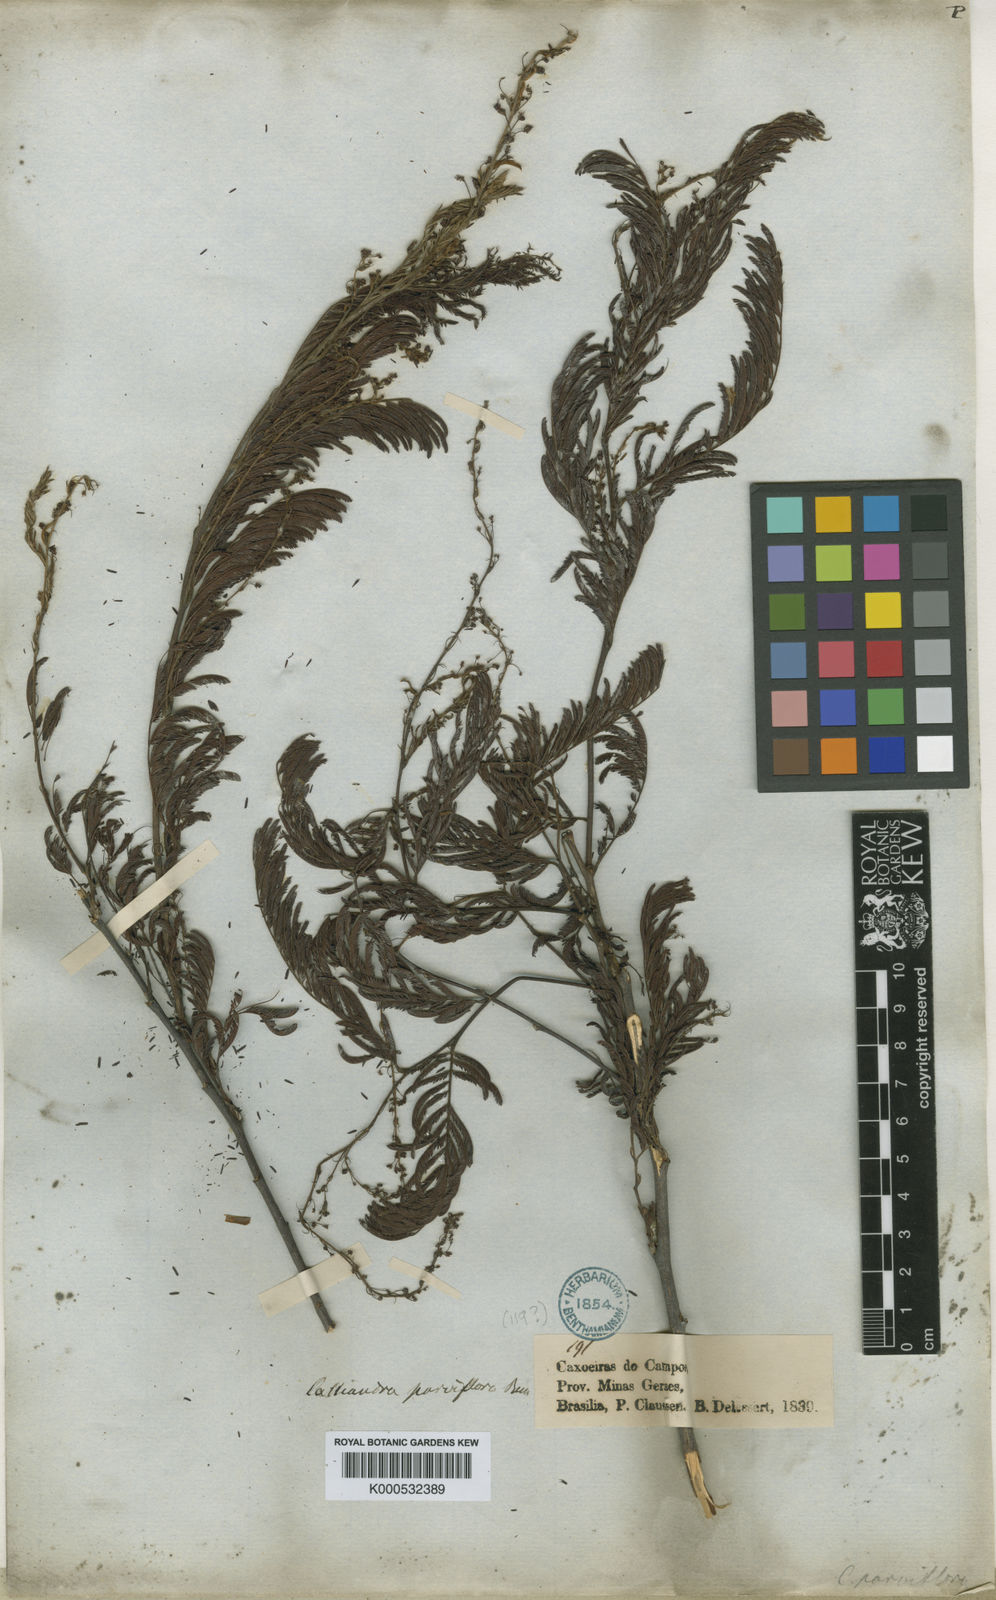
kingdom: Plantae
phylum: Tracheophyta
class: Magnoliopsida
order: Fabales
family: Fabaceae
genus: Calliandra
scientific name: Calliandra parviflora
